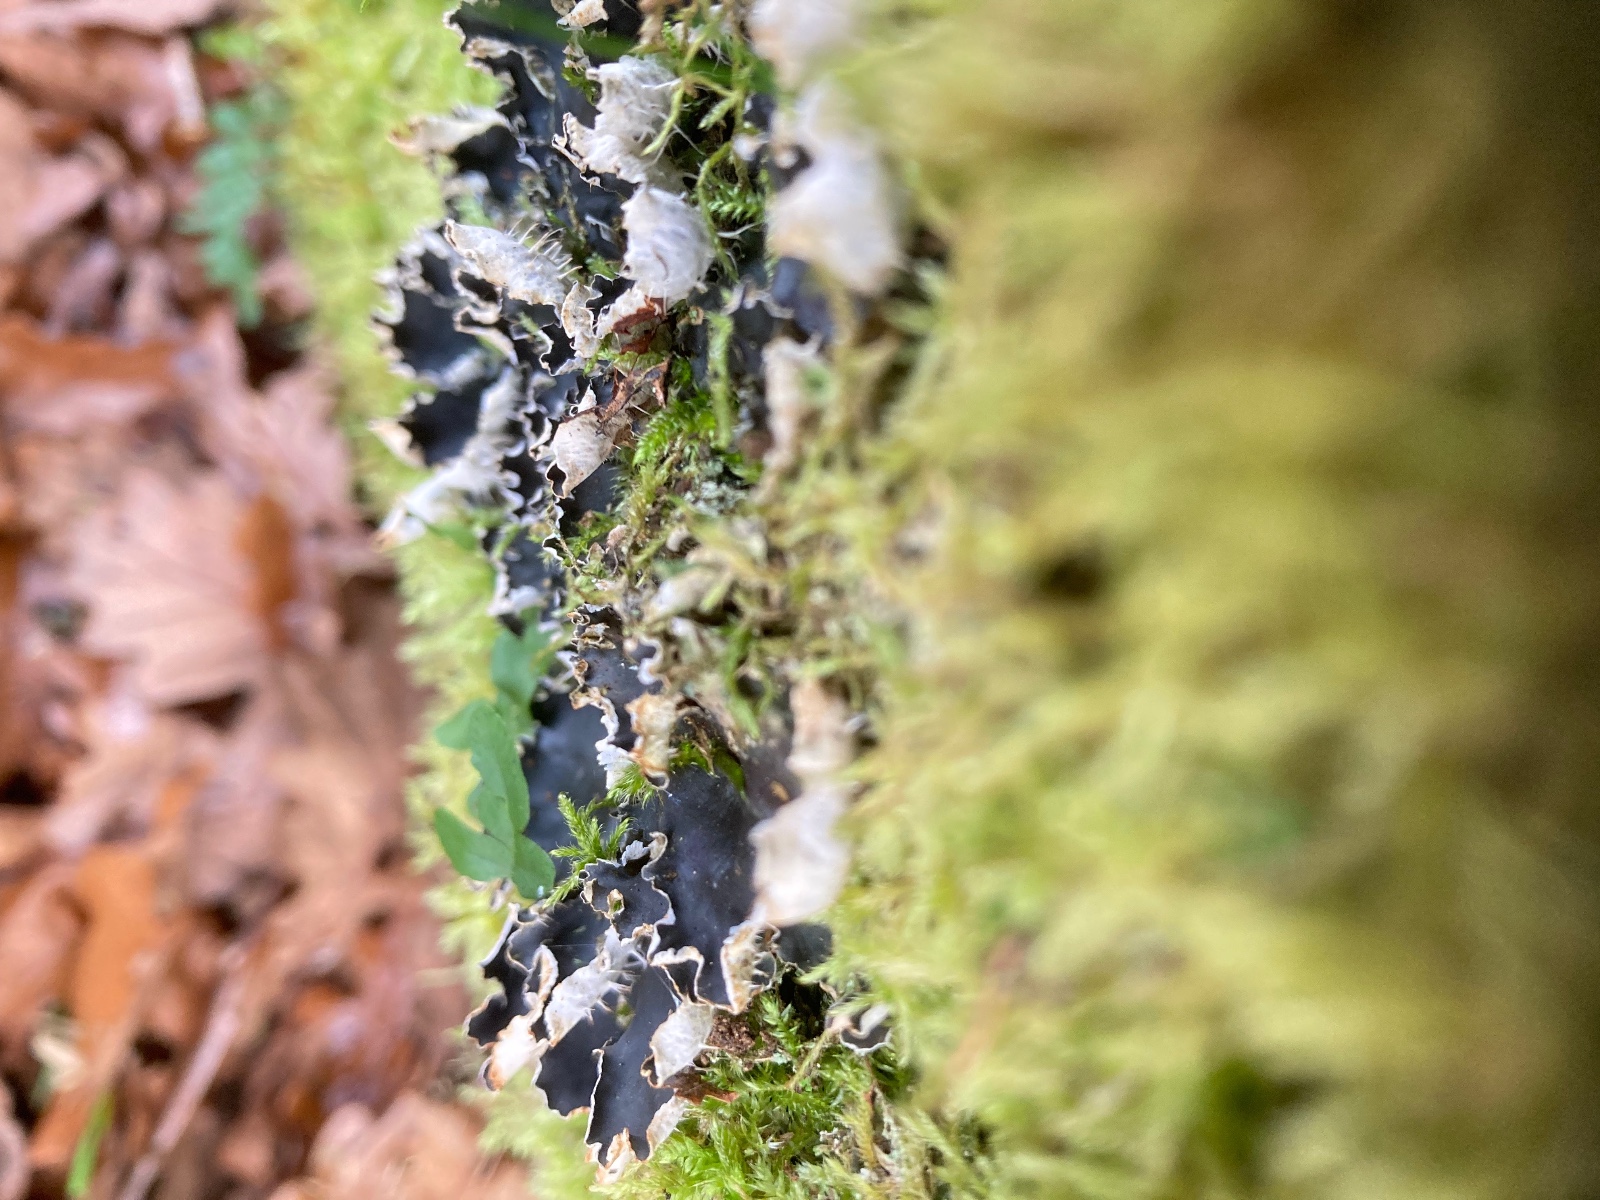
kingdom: Fungi
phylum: Ascomycota
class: Lecanoromycetes
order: Peltigerales
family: Peltigeraceae
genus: Peltigera
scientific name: Peltigera hymenina
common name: hinde-skjoldlav
